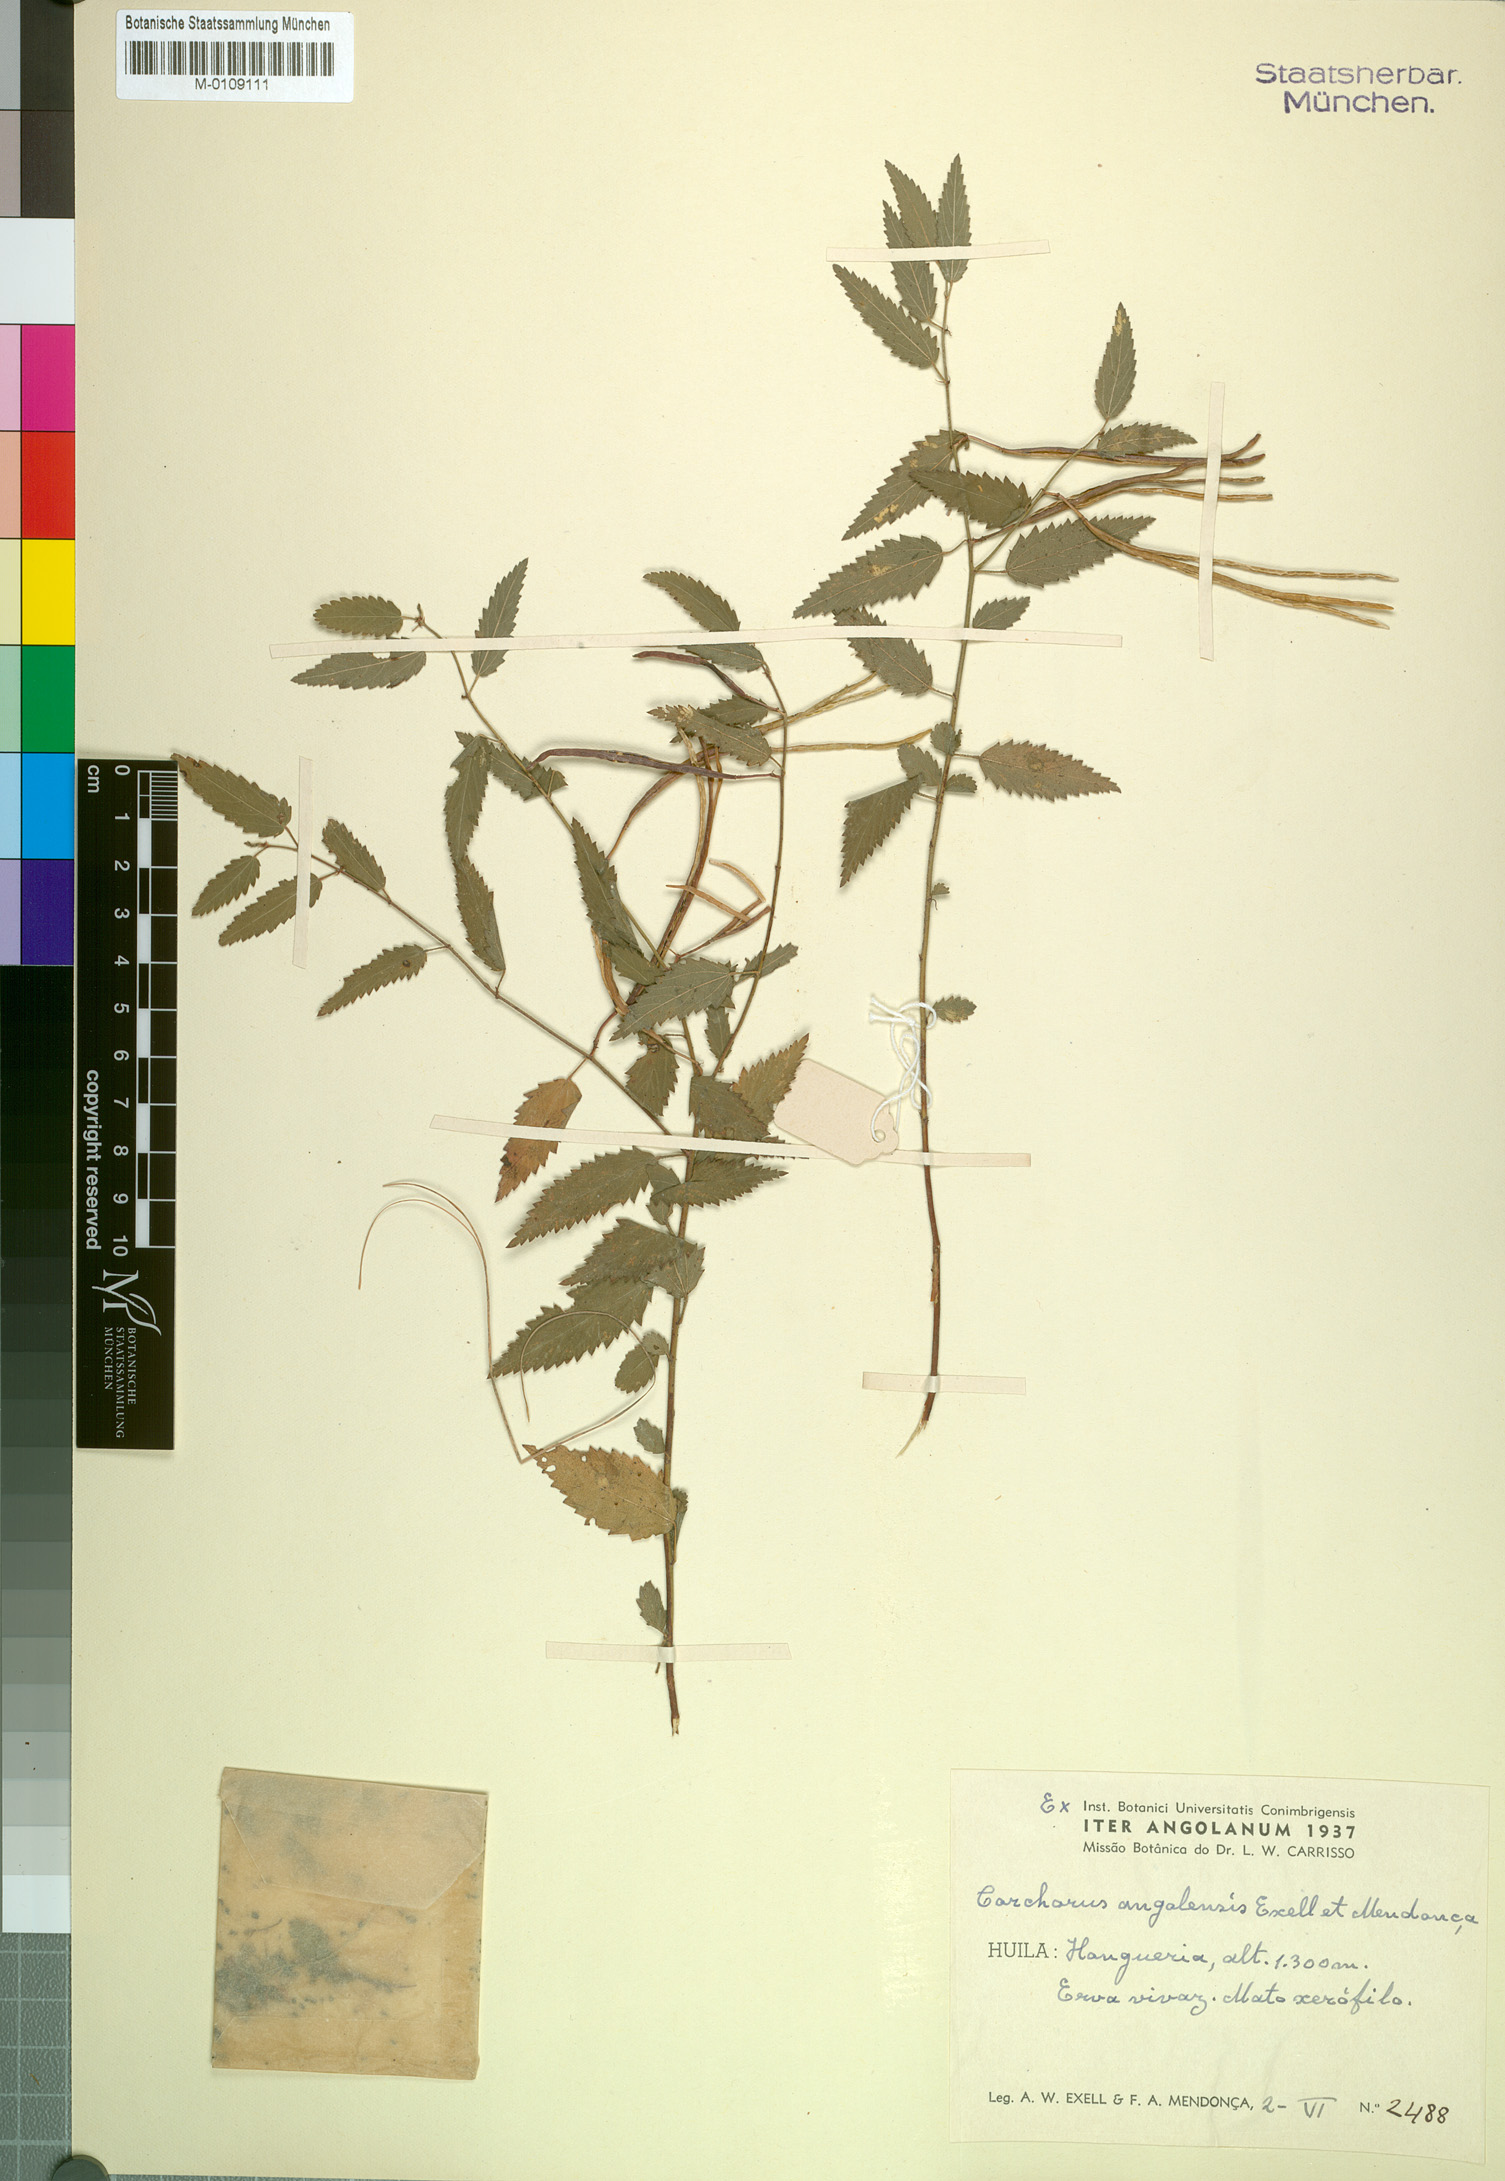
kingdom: Plantae
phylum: Tracheophyta
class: Magnoliopsida
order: Malvales
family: Malvaceae
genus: Corchorus
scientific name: Corchorus angolensis
